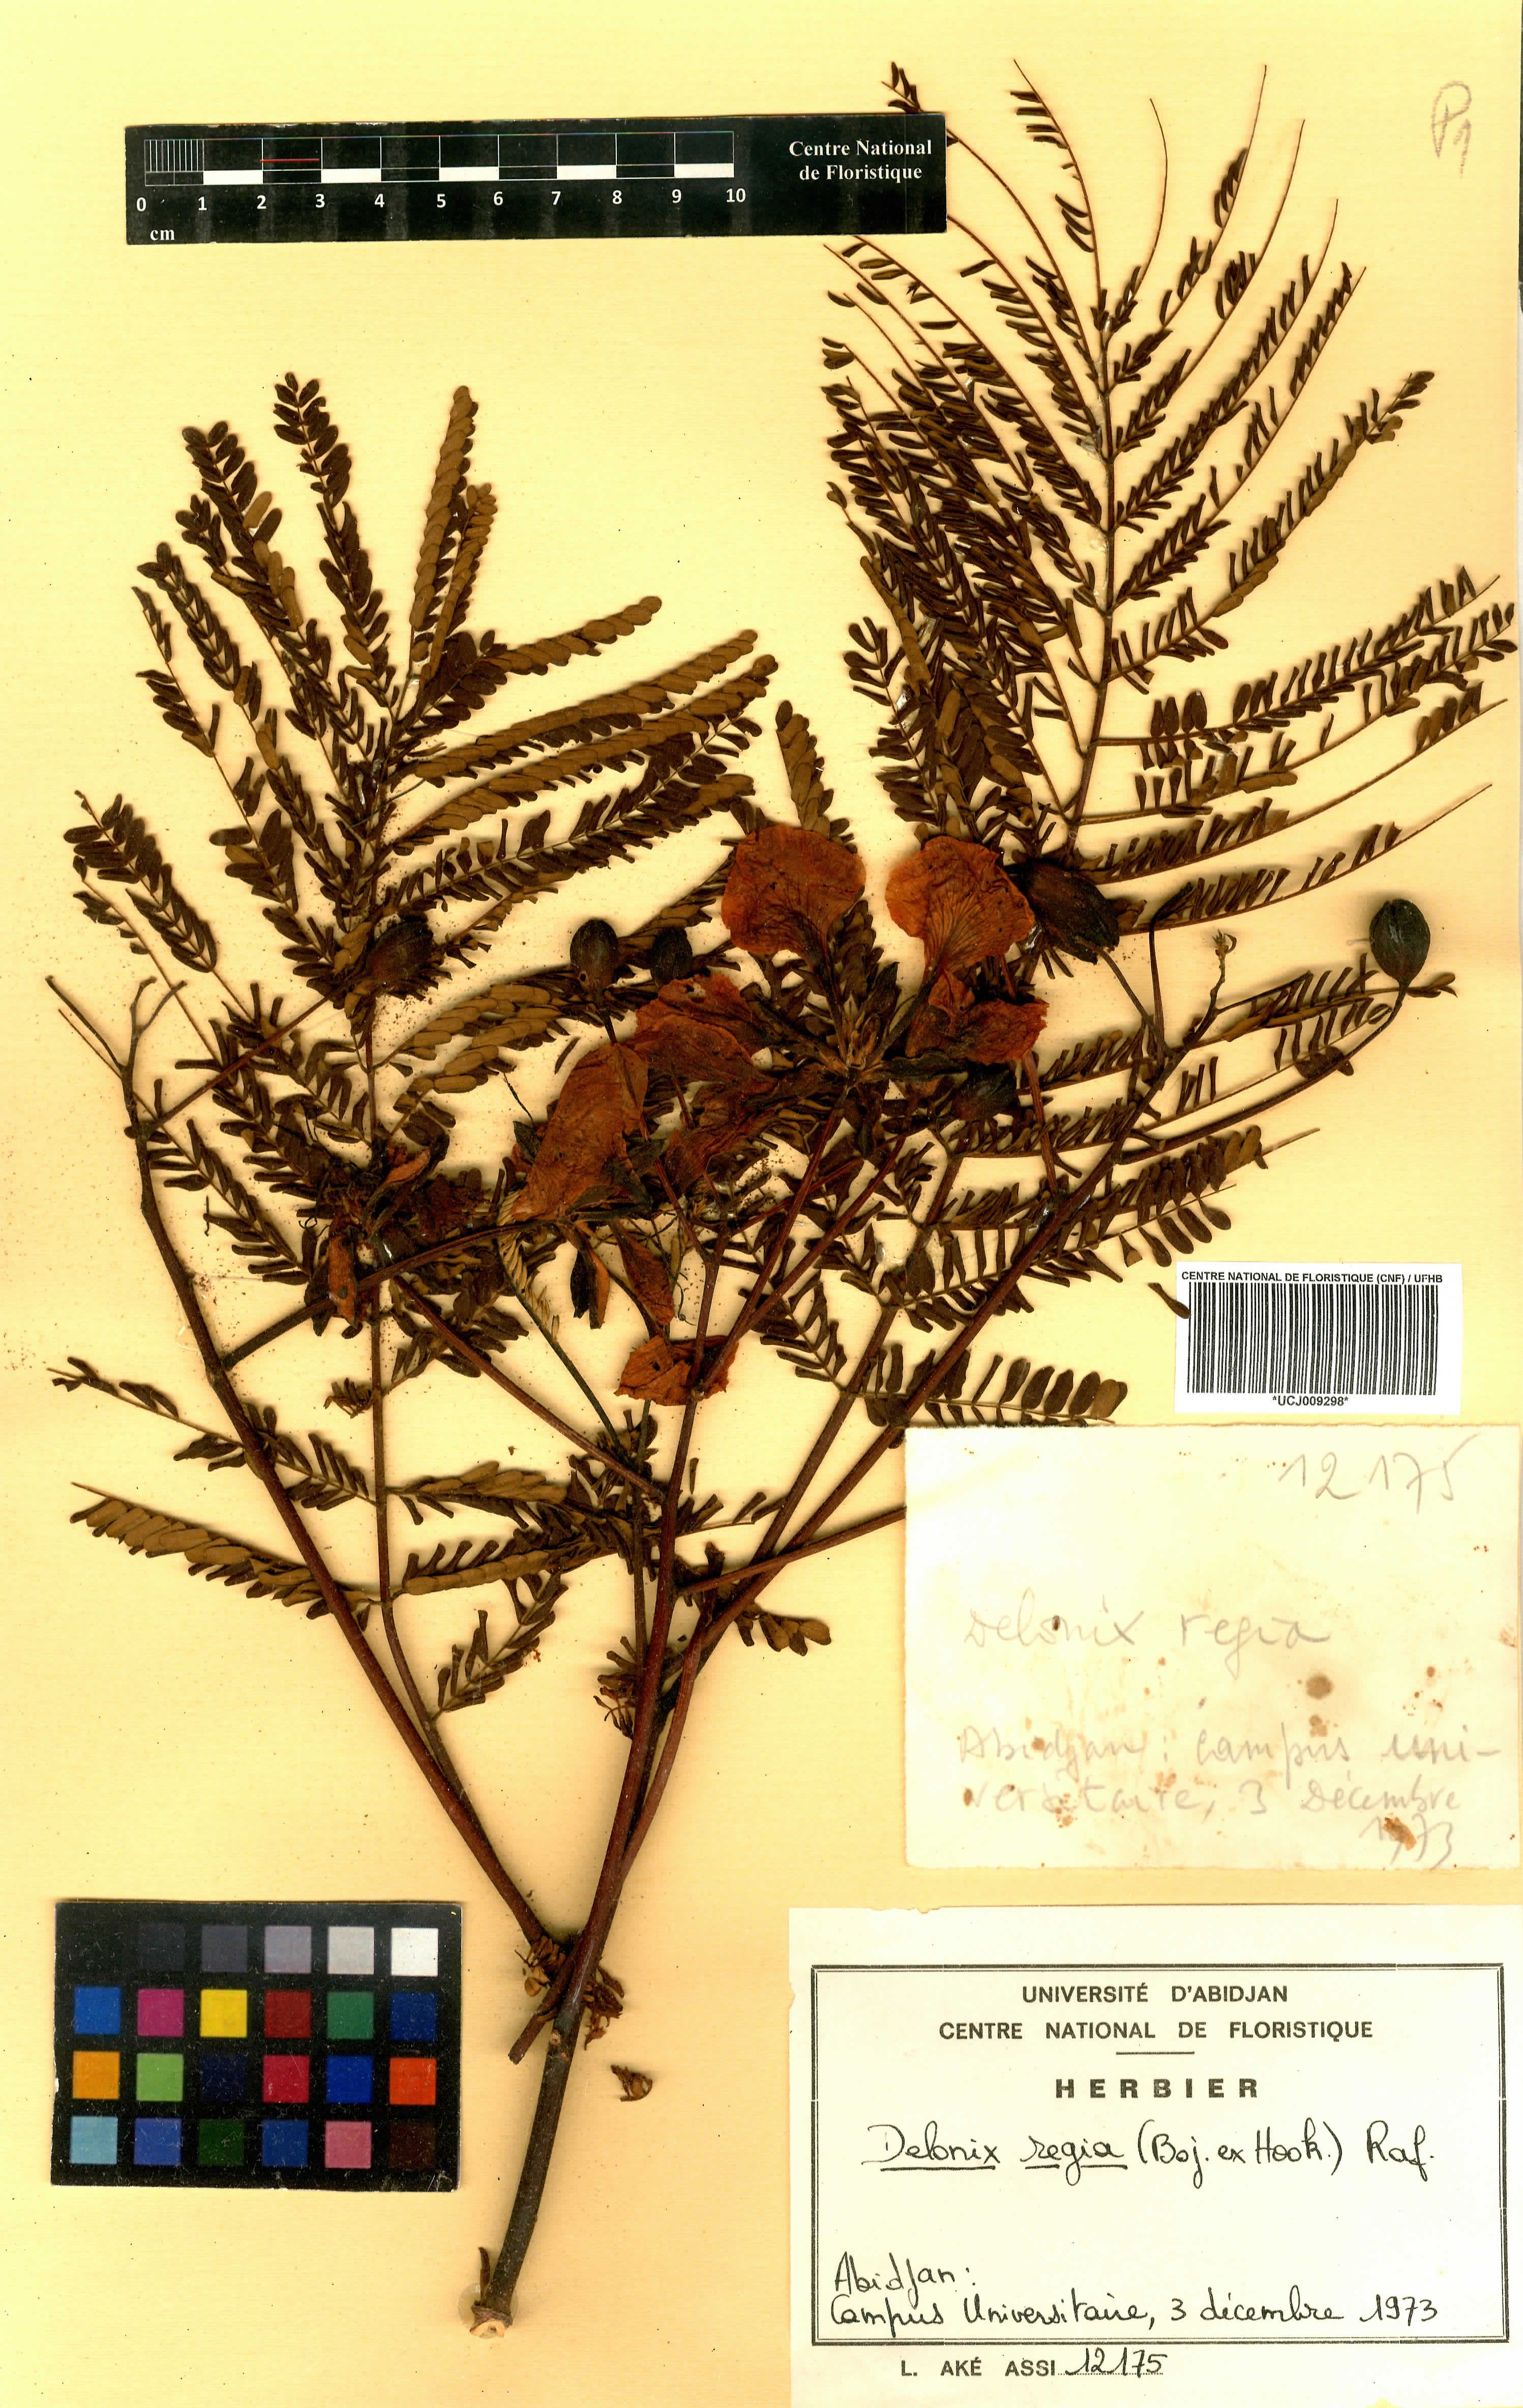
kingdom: Plantae
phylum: Tracheophyta
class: Magnoliopsida
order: Fabales
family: Fabaceae
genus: Delonix
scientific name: Delonix regia
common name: Royal poinciana
